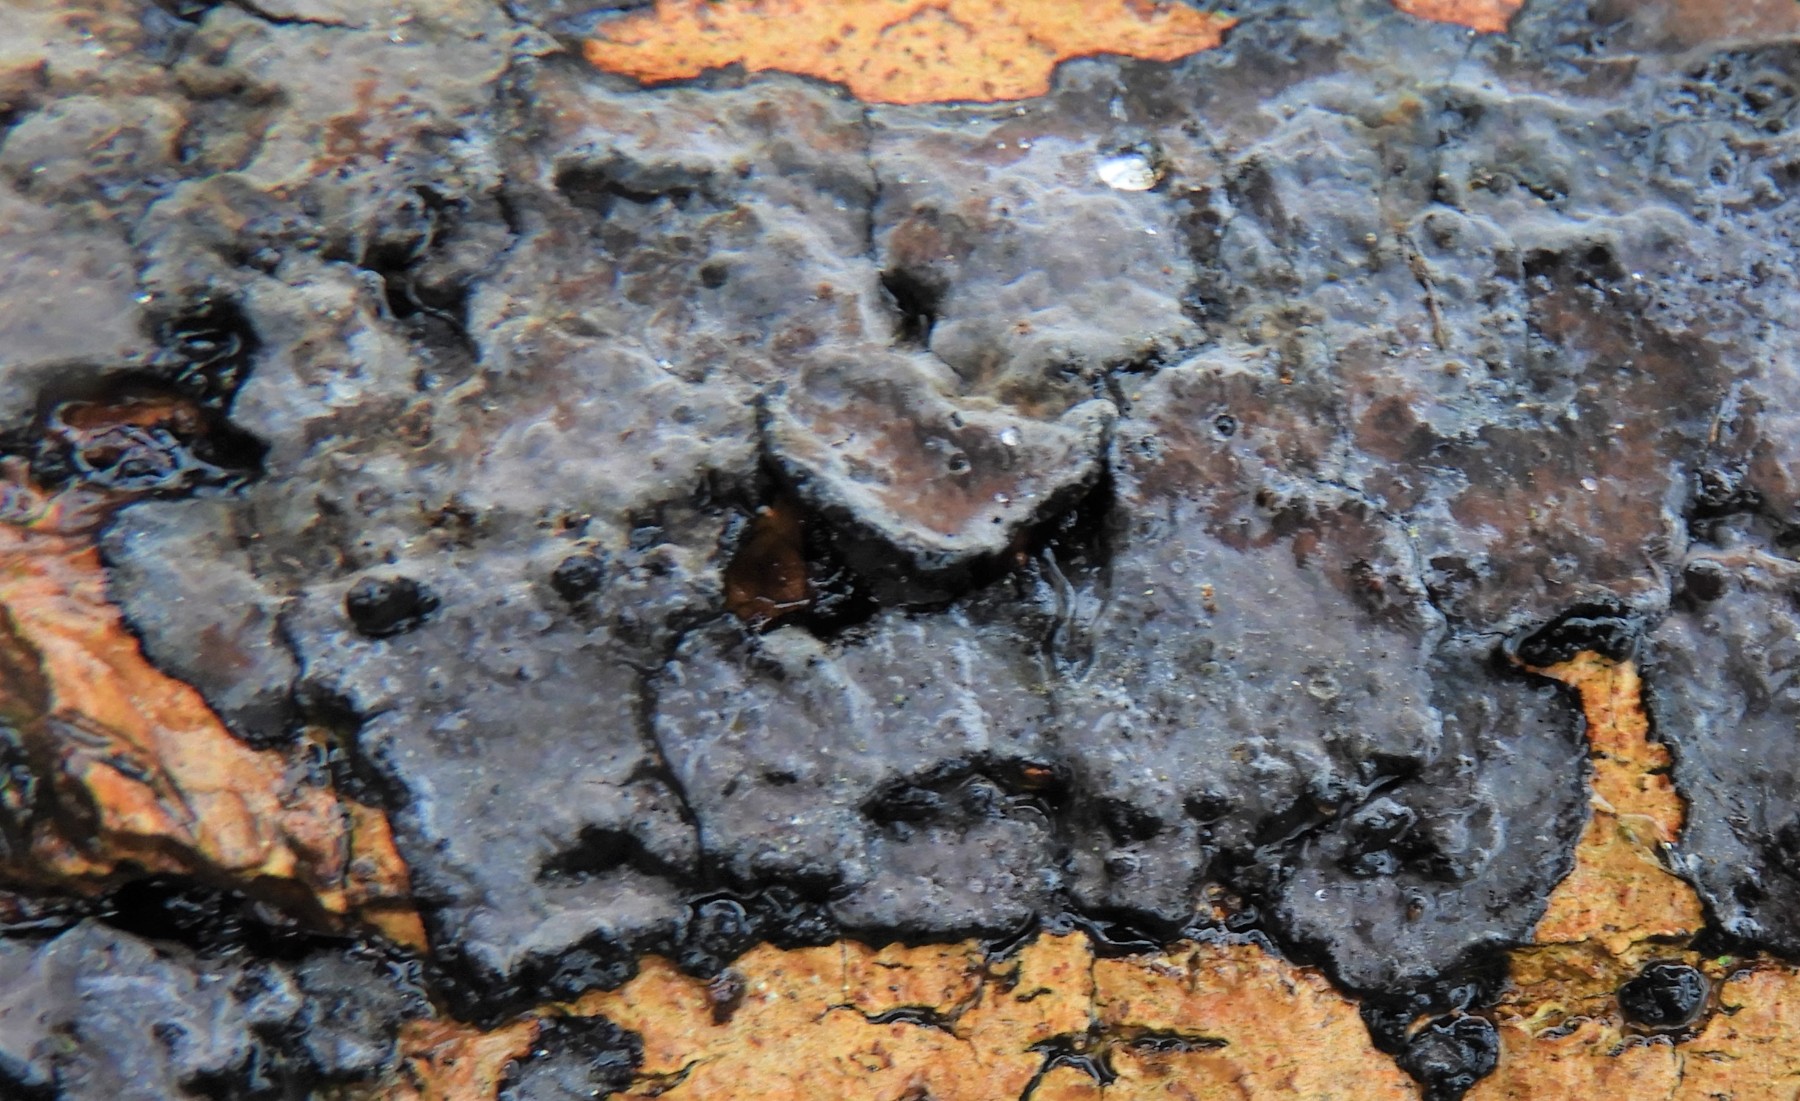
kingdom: Fungi
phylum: Basidiomycota
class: Agaricomycetes
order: Russulales
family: Peniophoraceae
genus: Peniophora
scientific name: Peniophora limitata
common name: mørkrandet voksskind
